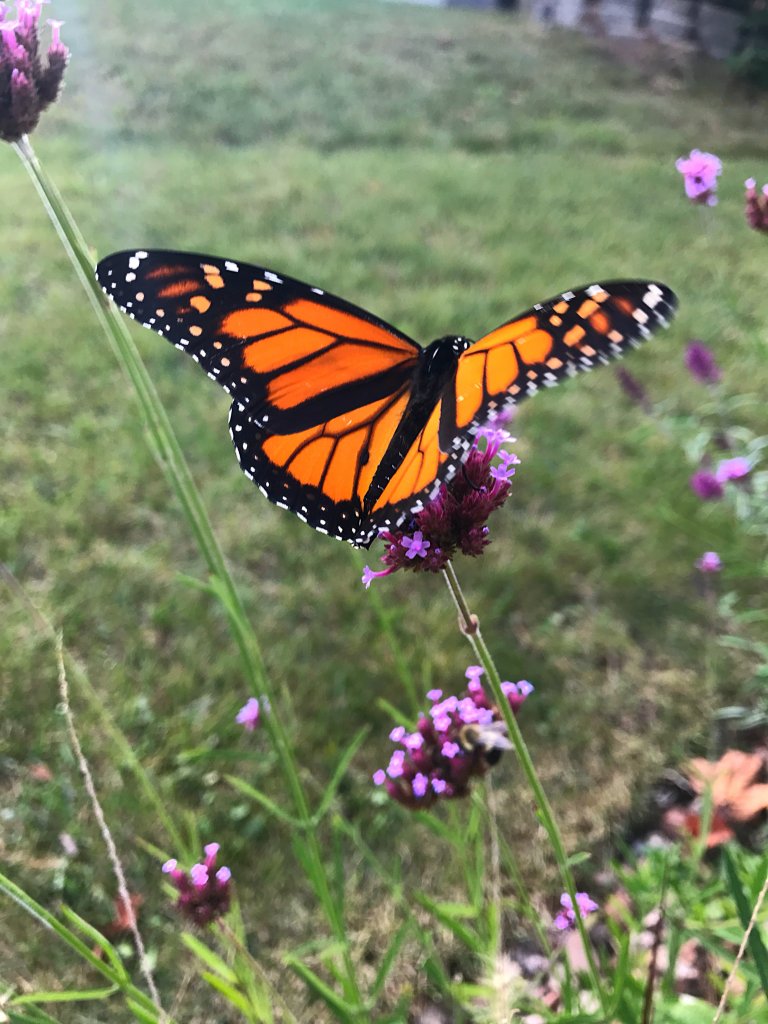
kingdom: Animalia
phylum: Arthropoda
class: Insecta
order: Lepidoptera
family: Nymphalidae
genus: Danaus
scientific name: Danaus plexippus
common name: Monarch
